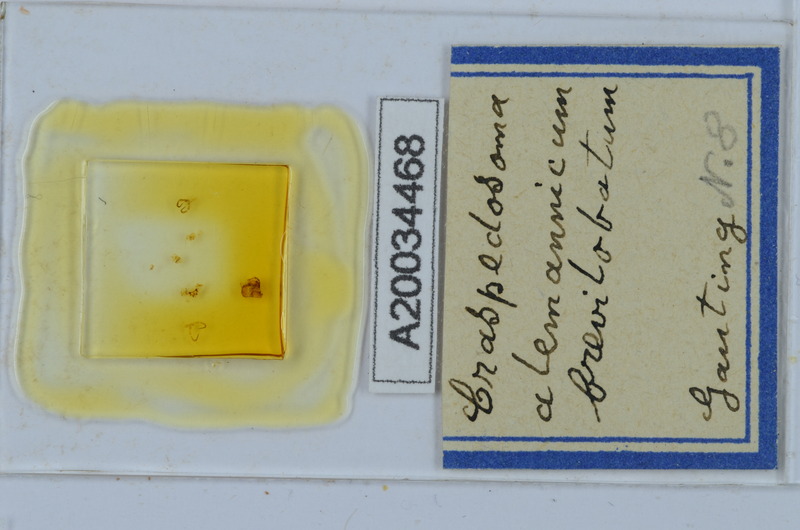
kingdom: Animalia
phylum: Arthropoda
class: Diplopoda
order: Chordeumatida
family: Craspedosomatidae
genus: Craspedosoma
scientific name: Craspedosoma alemannicum
